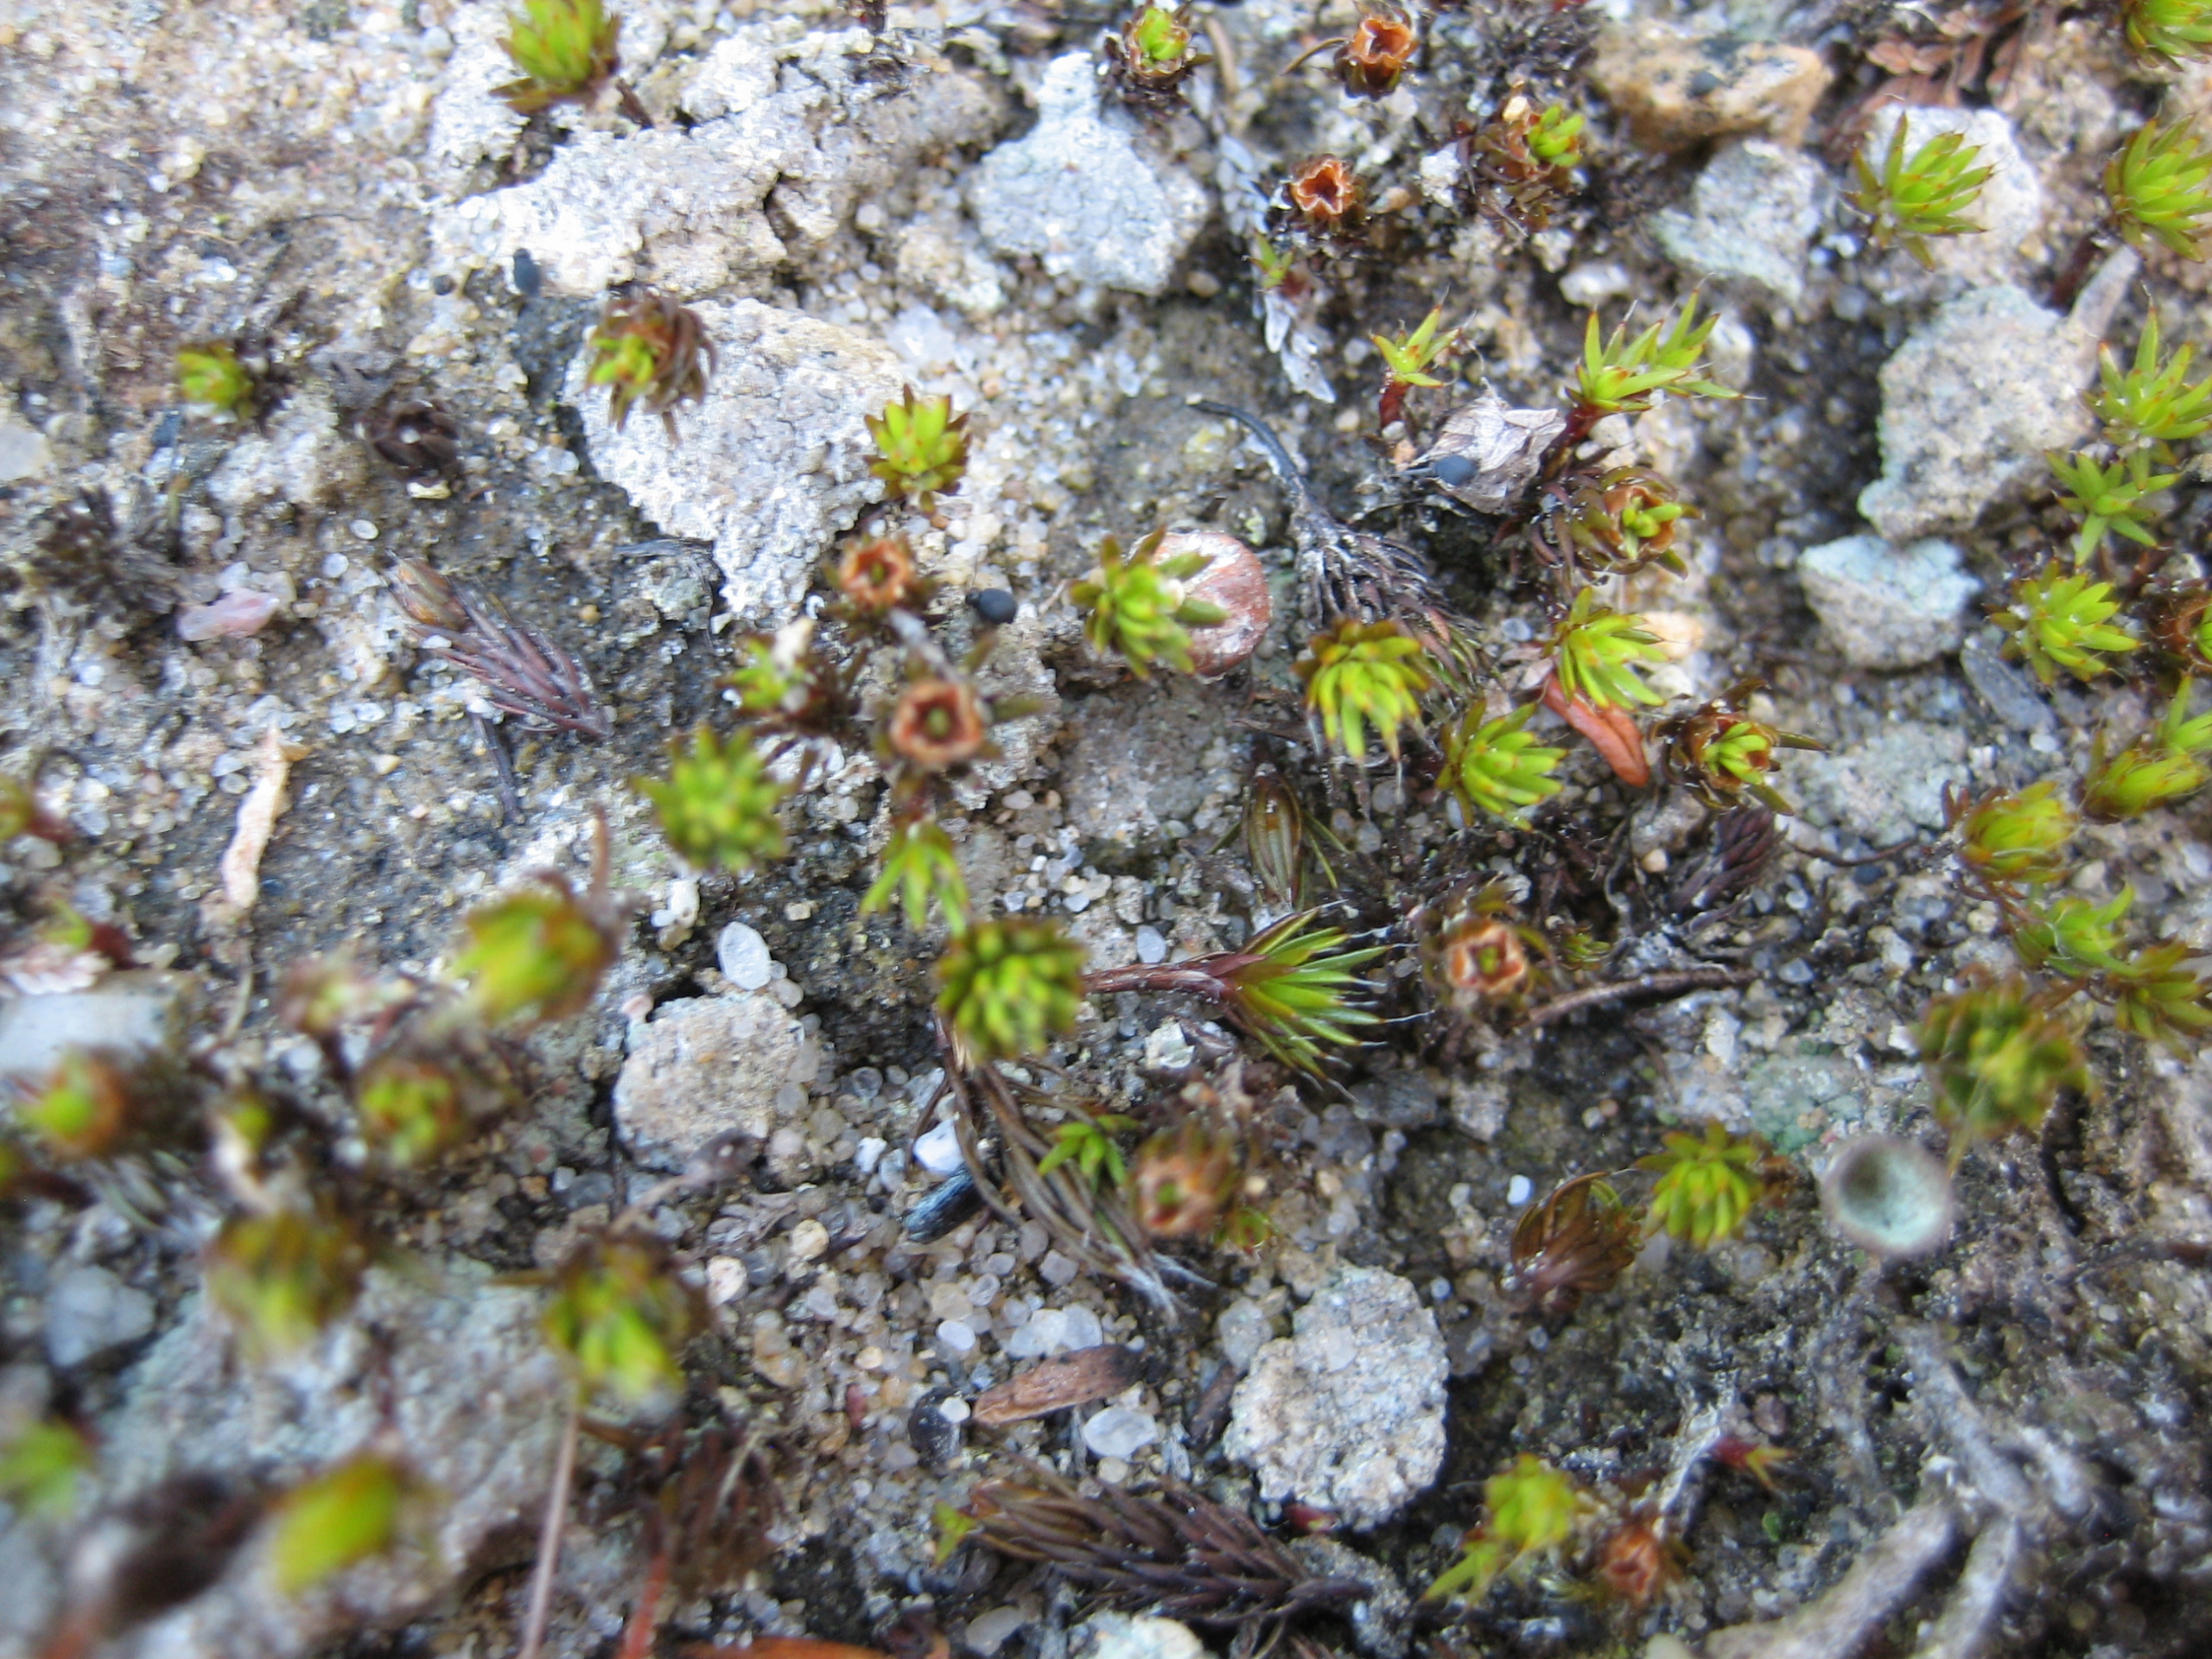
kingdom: Plantae
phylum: Bryophyta
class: Polytrichopsida
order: Polytrichales
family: Polytrichaceae
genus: Polytrichum
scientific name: Polytrichum piliferum
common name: Hårspidset jomfruhår
